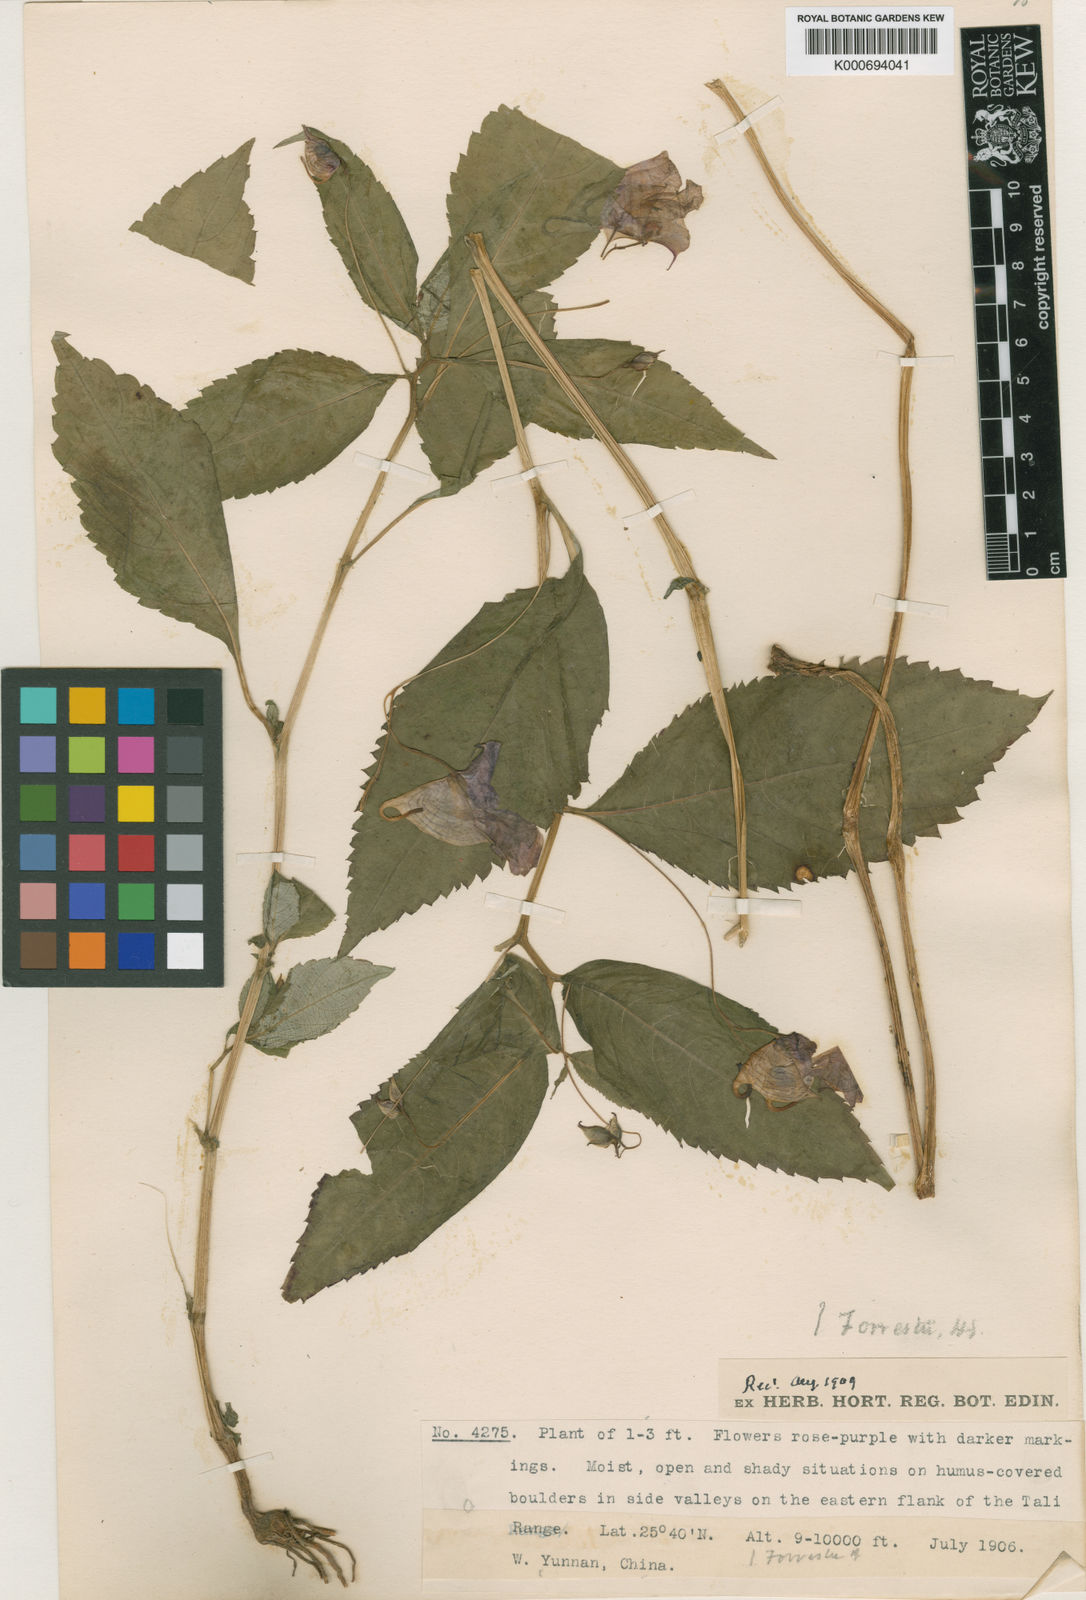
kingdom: Plantae
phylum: Tracheophyta
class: Magnoliopsida
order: Ericales
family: Balsaminaceae
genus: Impatiens
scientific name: Impatiens forrestii
